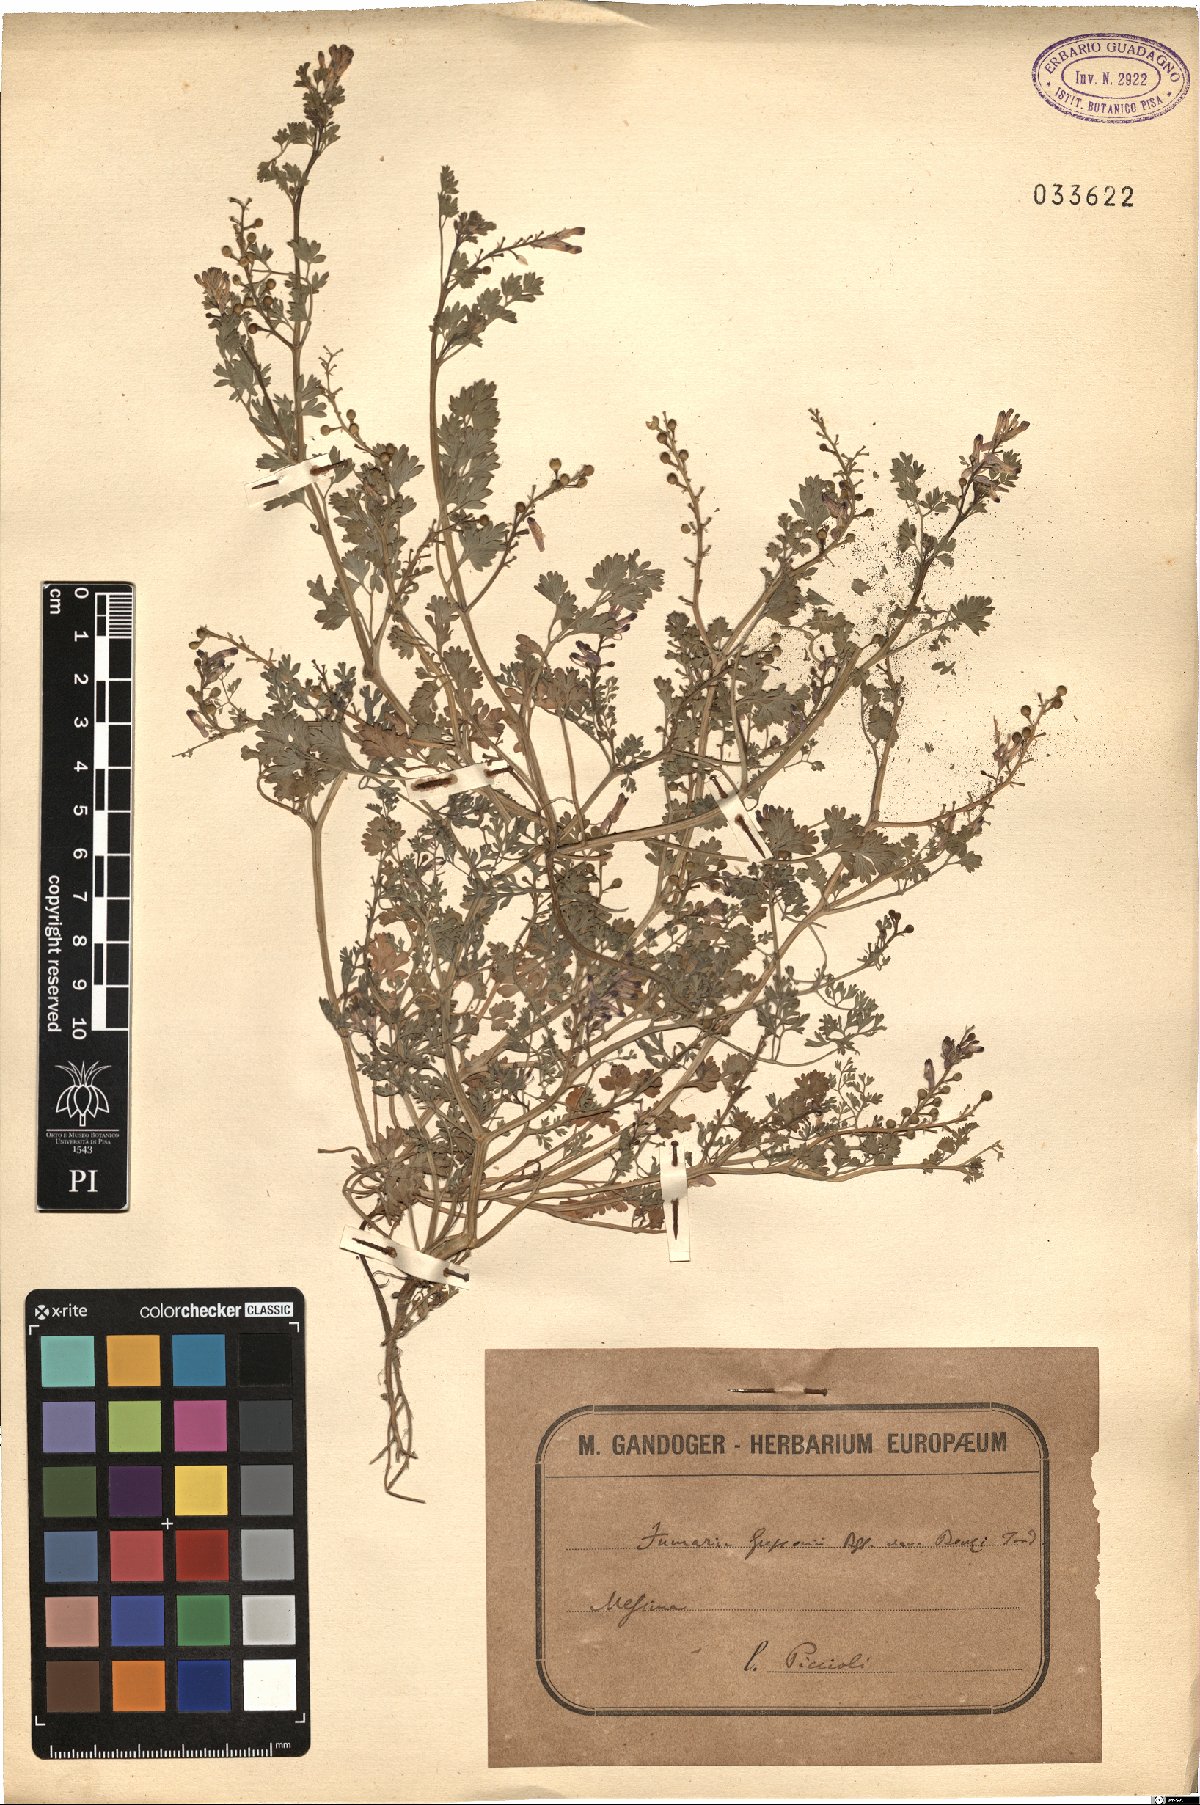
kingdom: Plantae
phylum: Tracheophyta
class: Magnoliopsida
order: Ranunculales
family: Papaveraceae
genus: Fumaria
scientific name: Fumaria bastardii
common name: Tall ramping-fumitory
